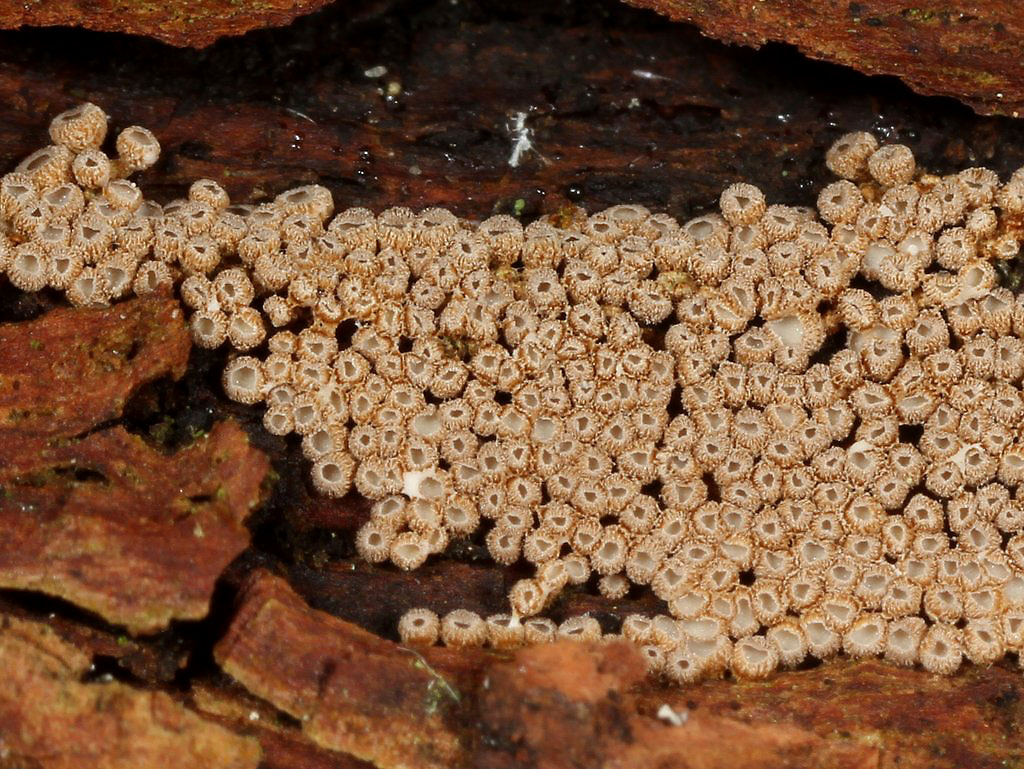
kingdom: Fungi
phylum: Basidiomycota
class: Agaricomycetes
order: Agaricales
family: Niaceae
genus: Merismodes
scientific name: Merismodes anomala
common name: almindelig læderskål
